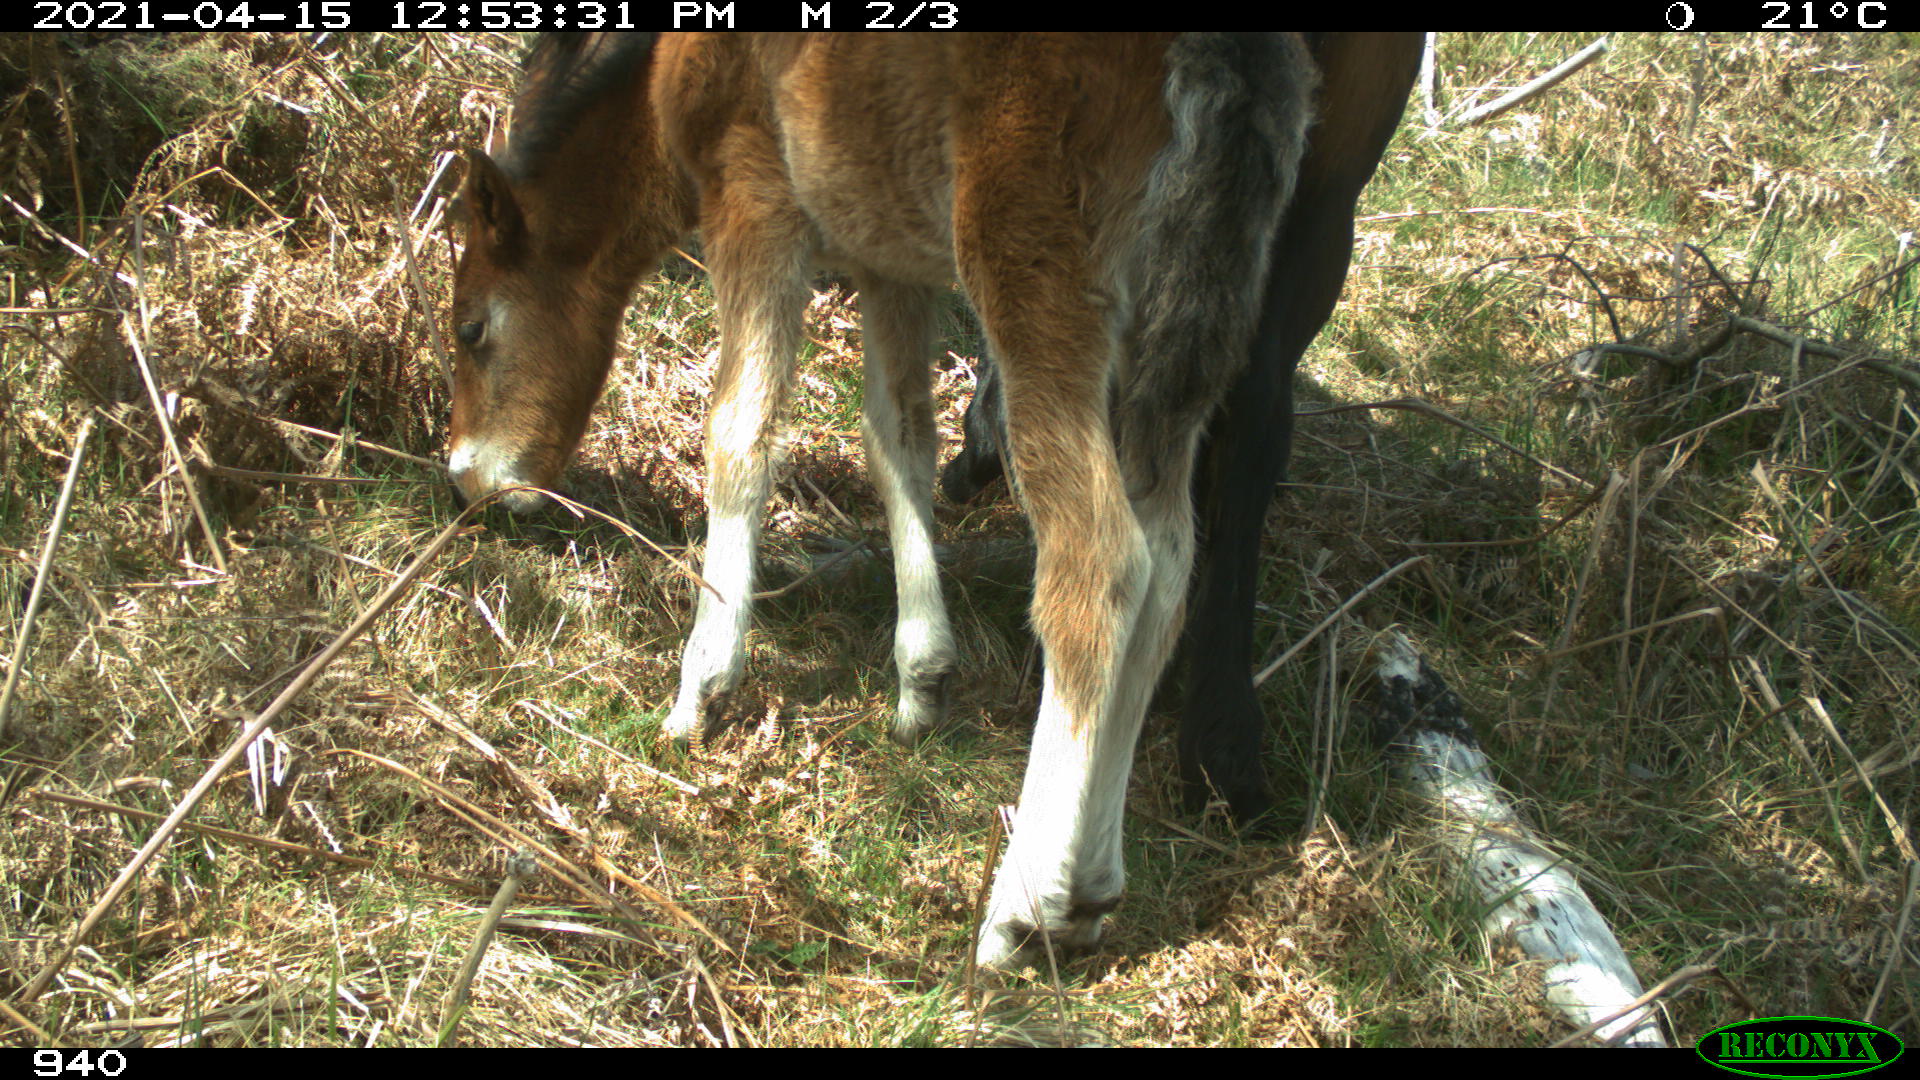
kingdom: Animalia
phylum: Chordata
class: Mammalia
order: Perissodactyla
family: Equidae
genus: Equus
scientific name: Equus caballus
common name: Horse
